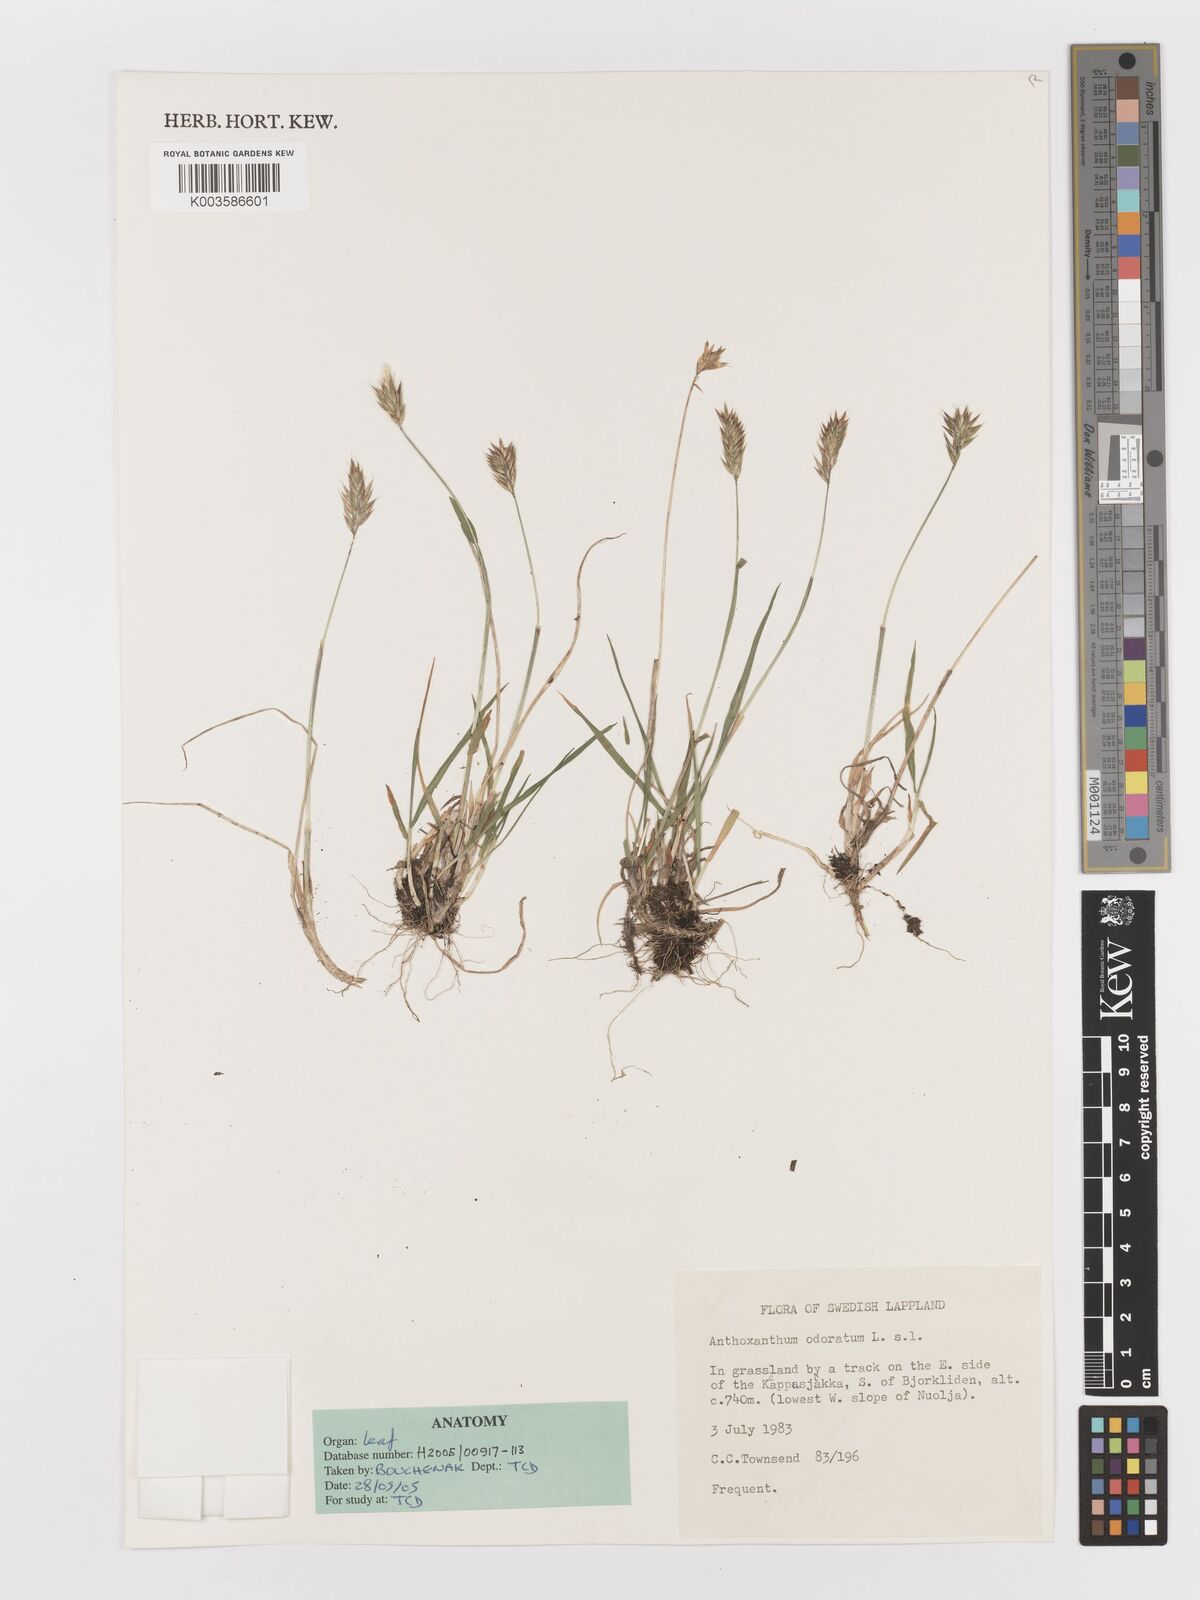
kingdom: Plantae
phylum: Tracheophyta
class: Liliopsida
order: Poales
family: Poaceae
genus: Anthoxanthum
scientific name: Anthoxanthum odoratum
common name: Sweet vernalgrass
